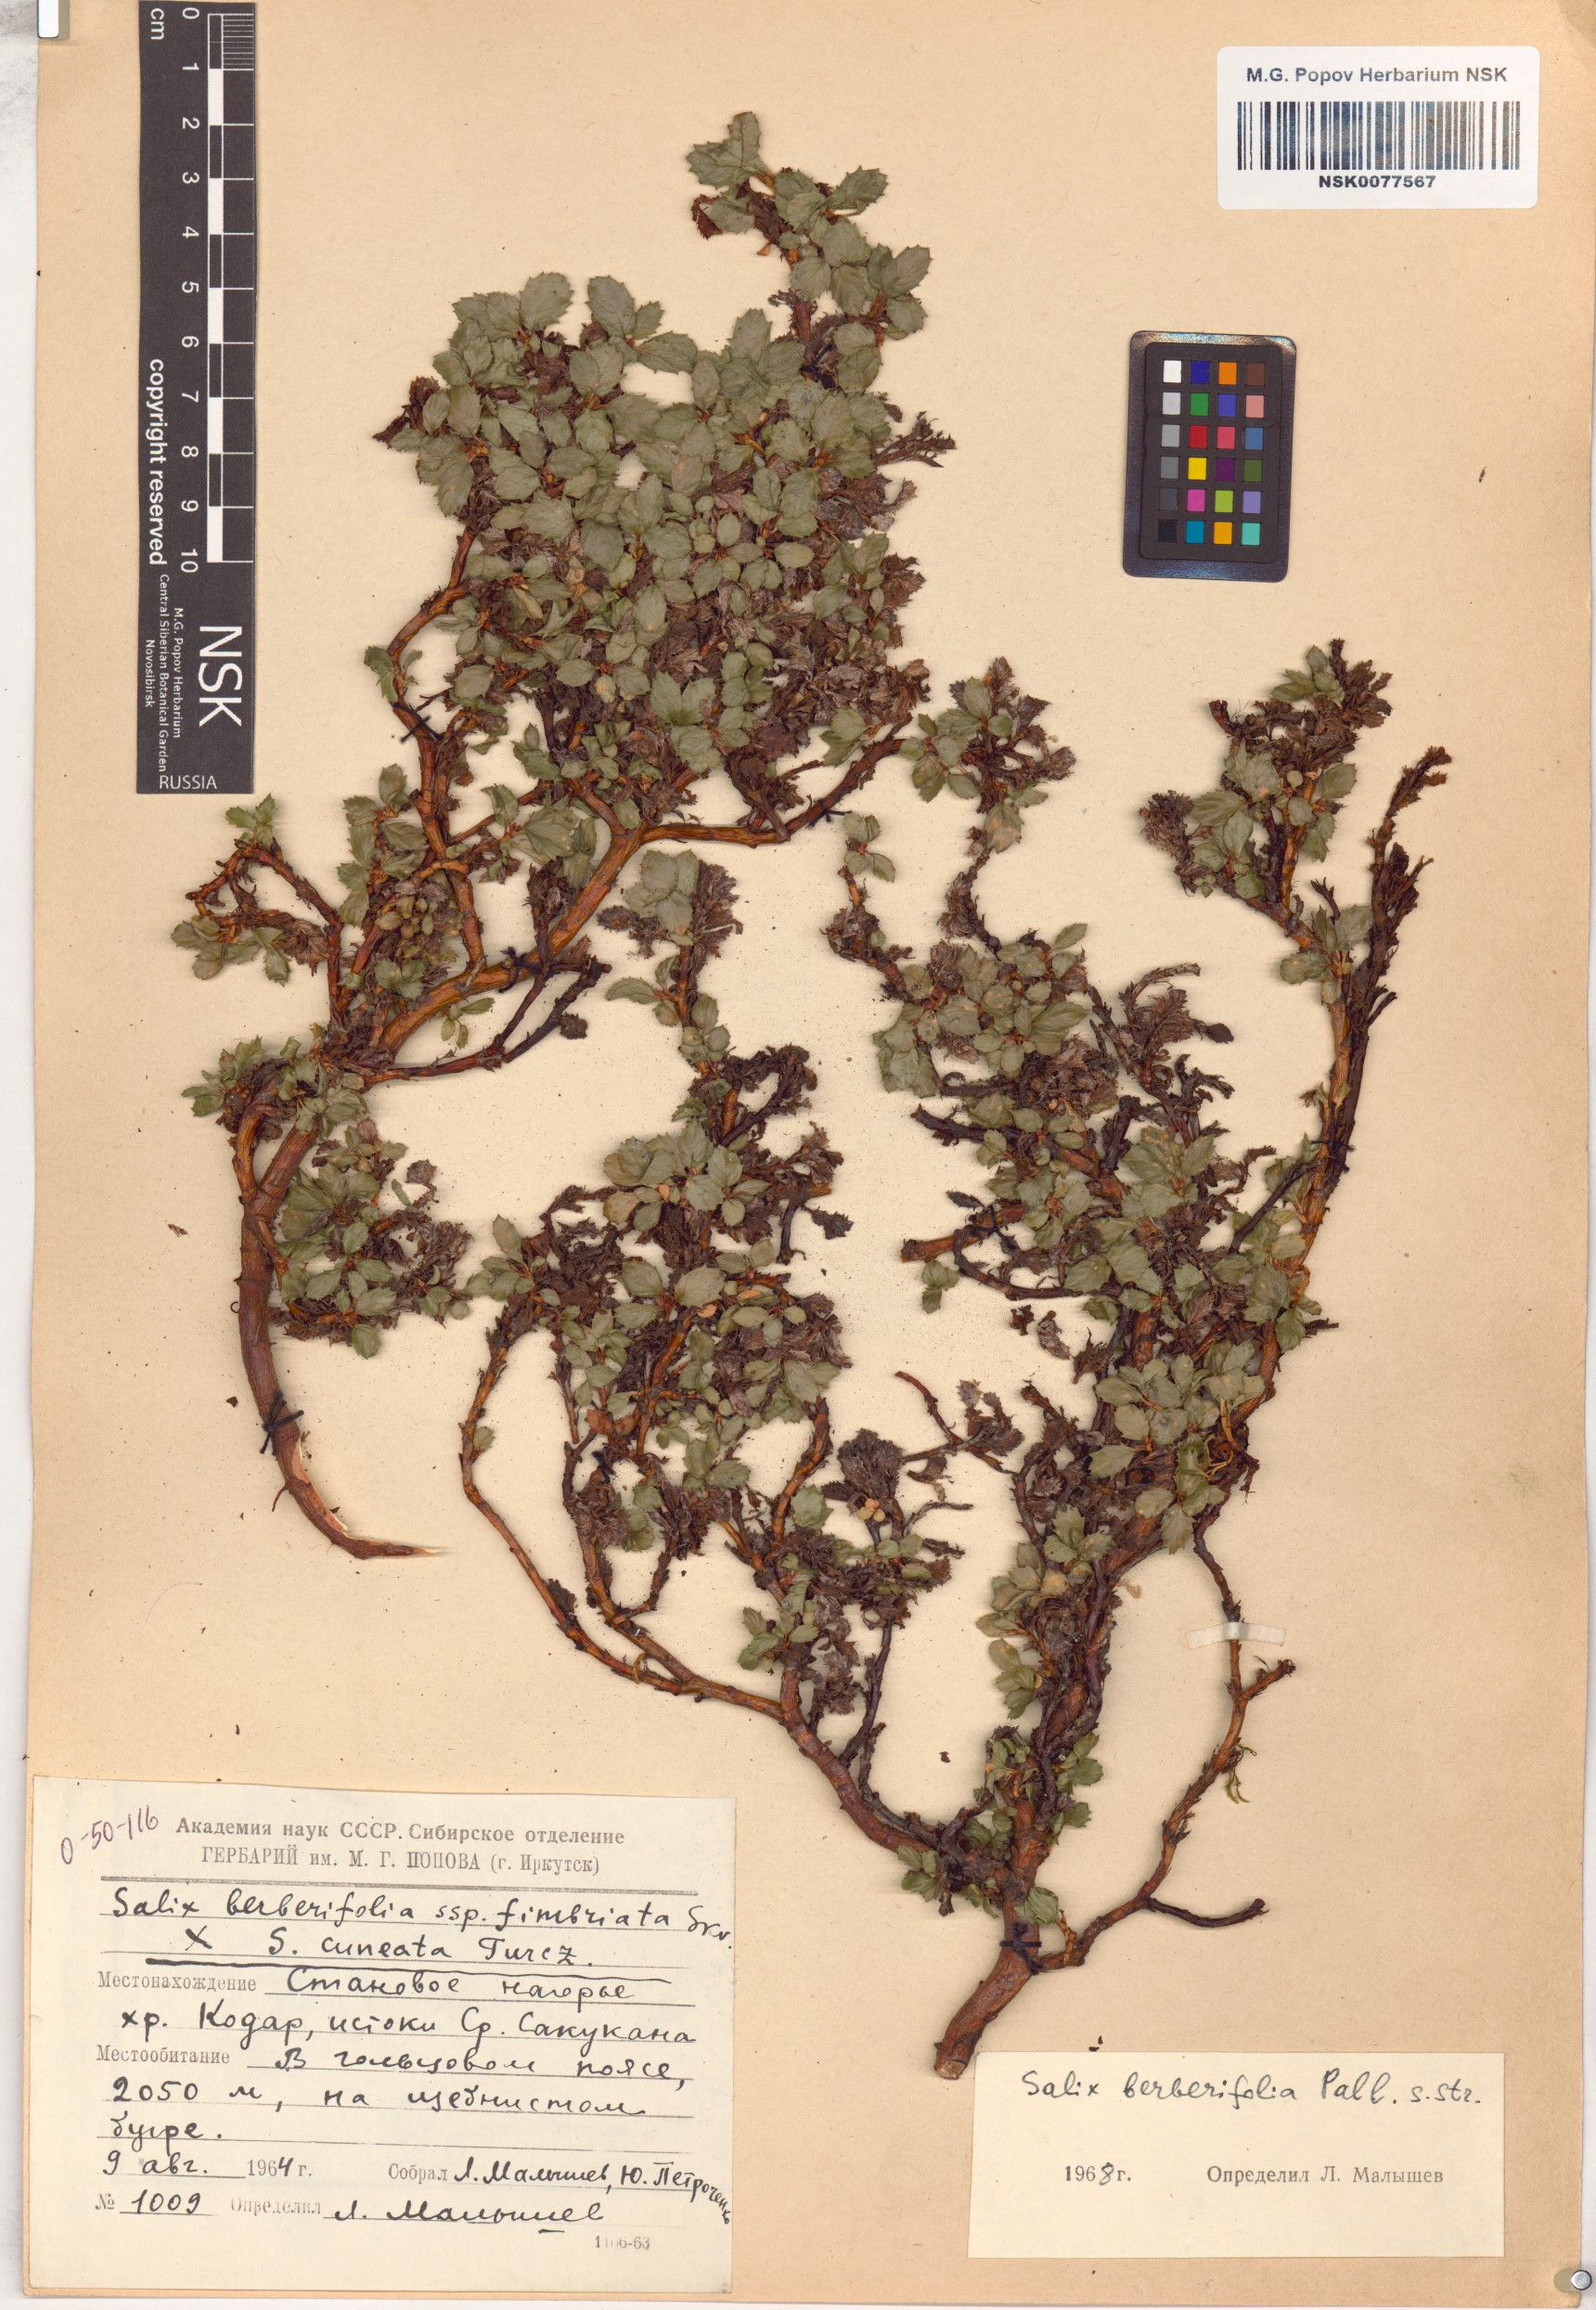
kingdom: Plantae
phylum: Tracheophyta
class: Magnoliopsida
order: Malpighiales
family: Salicaceae
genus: Salix
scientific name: Salix berberifolia
